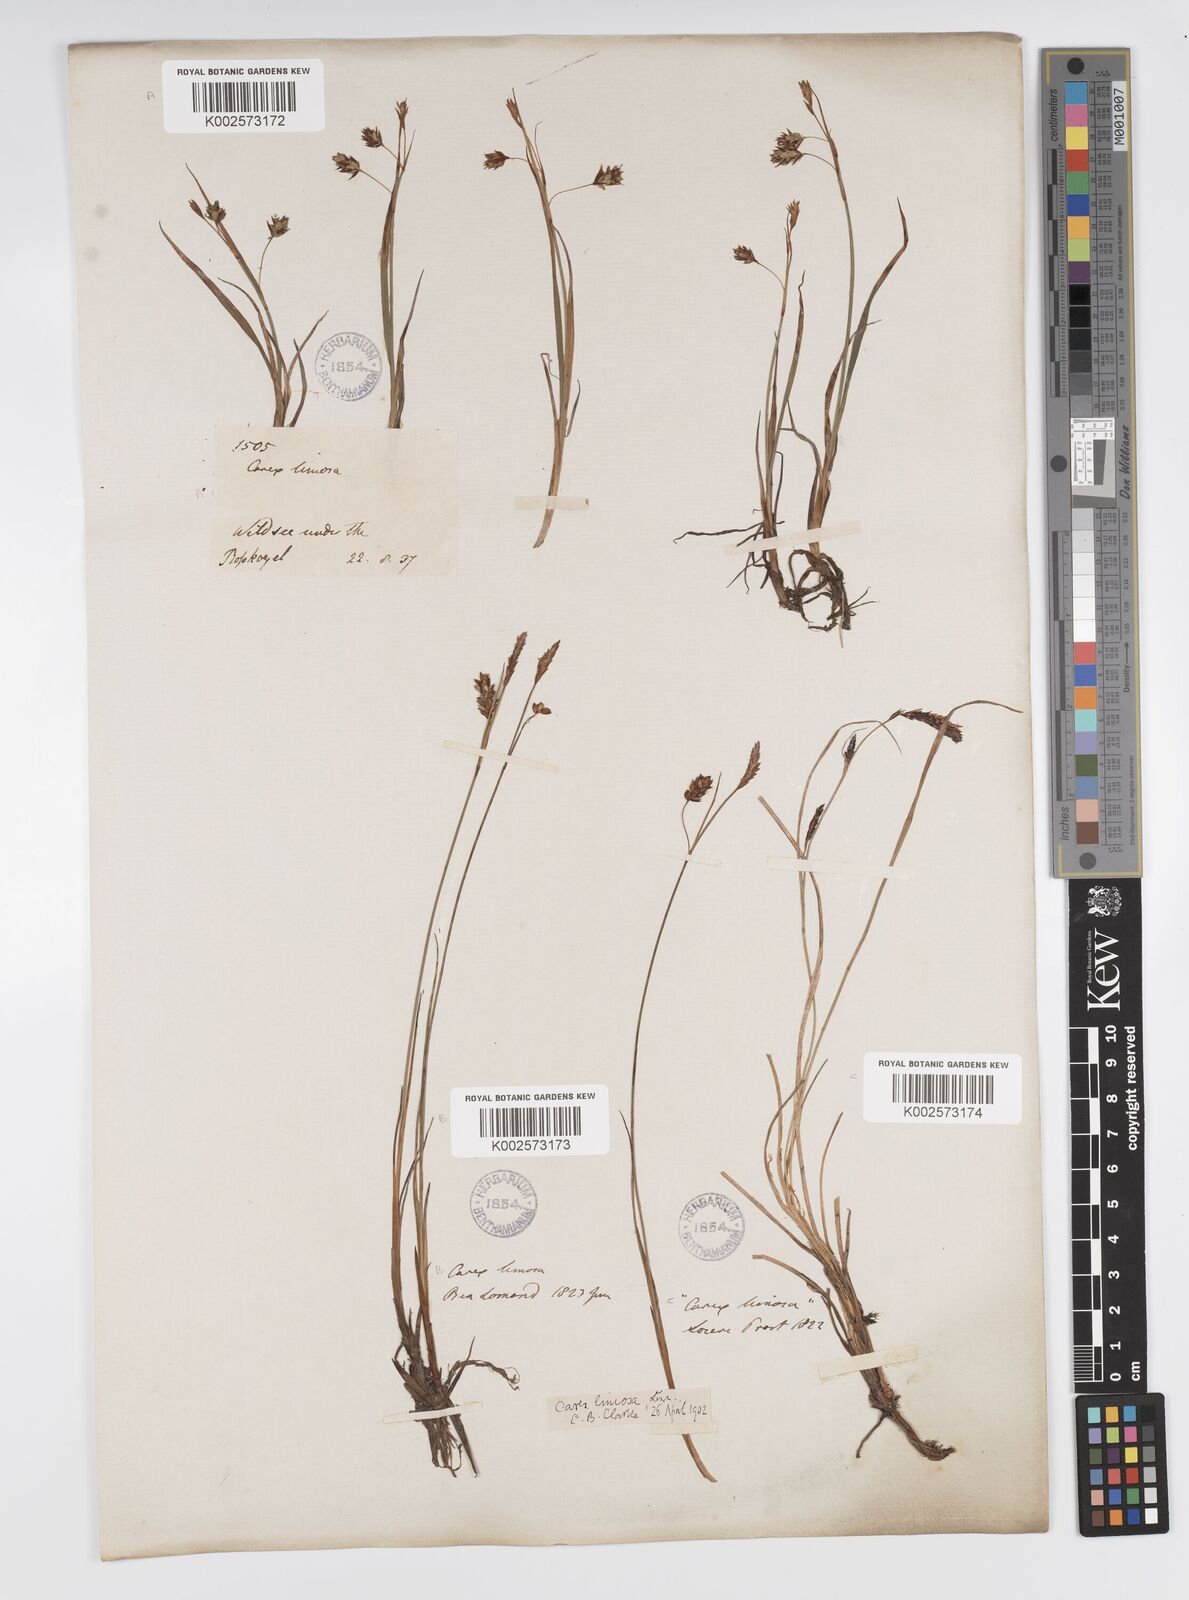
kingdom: Plantae
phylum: Tracheophyta
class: Liliopsida
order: Poales
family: Cyperaceae
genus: Carex
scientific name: Carex limosa
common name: Bog sedge
